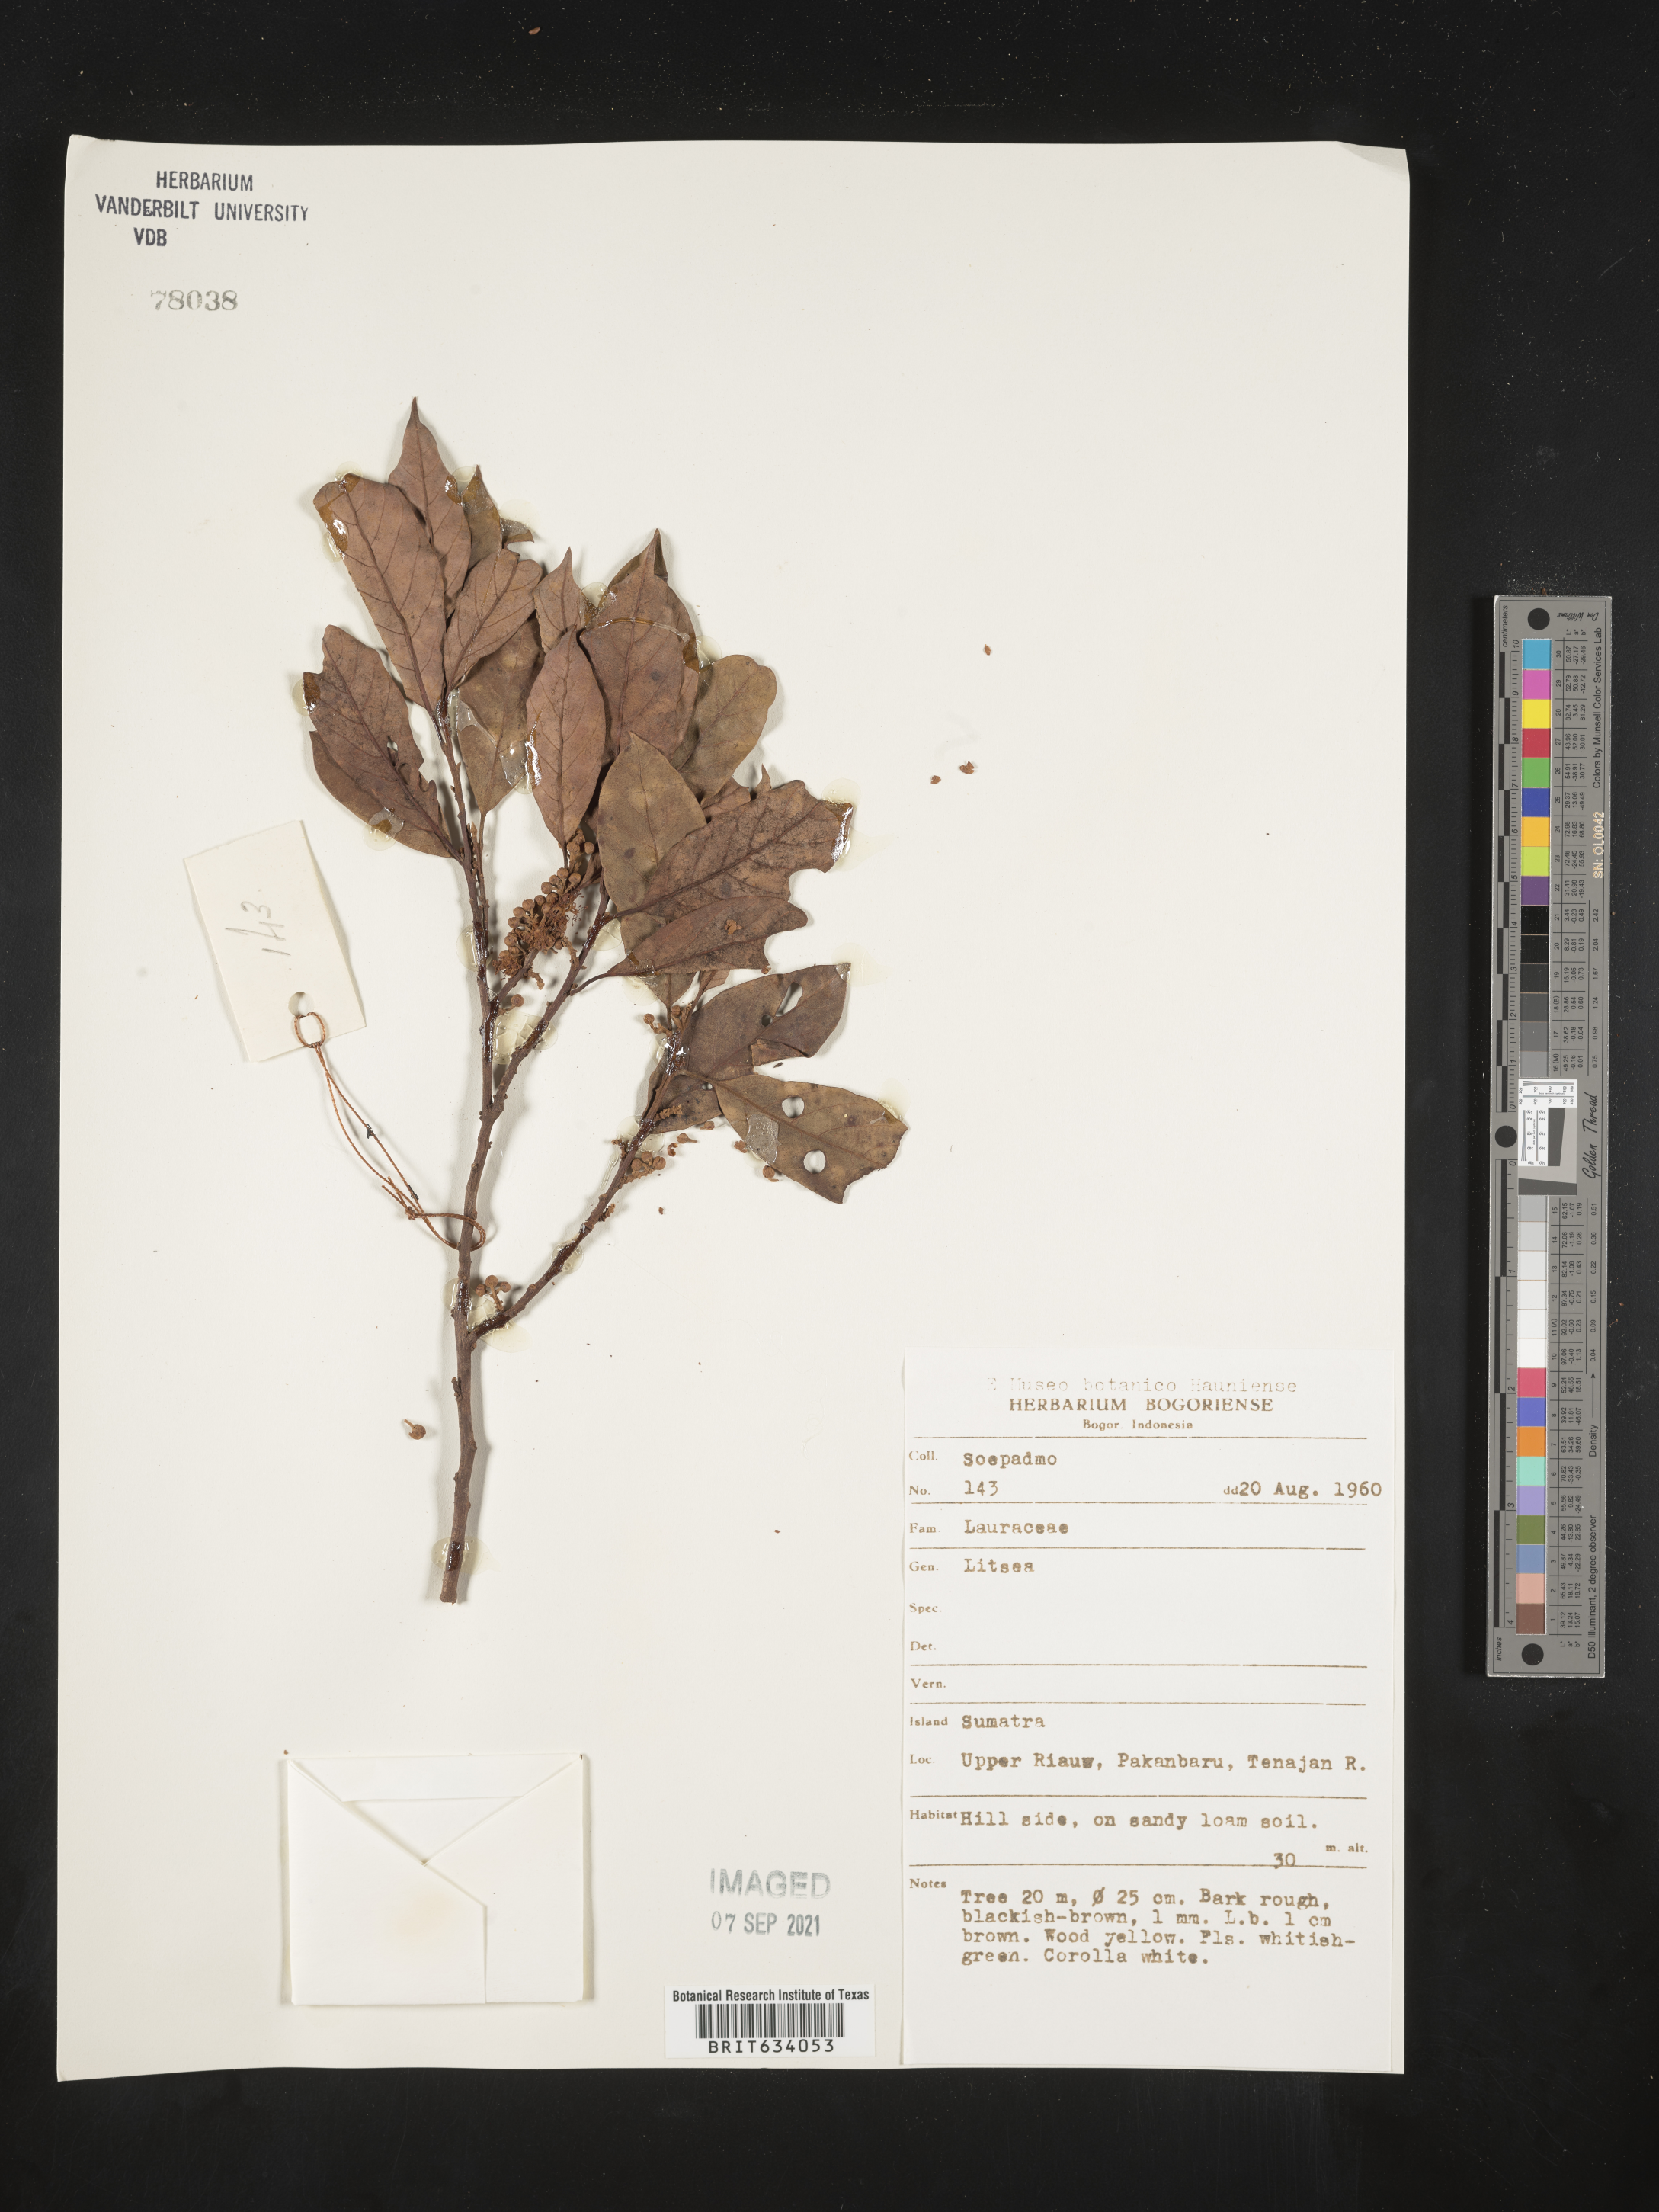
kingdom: Plantae
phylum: Tracheophyta
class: Magnoliopsida
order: Laurales
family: Lauraceae
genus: Litsea
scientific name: Litsea
